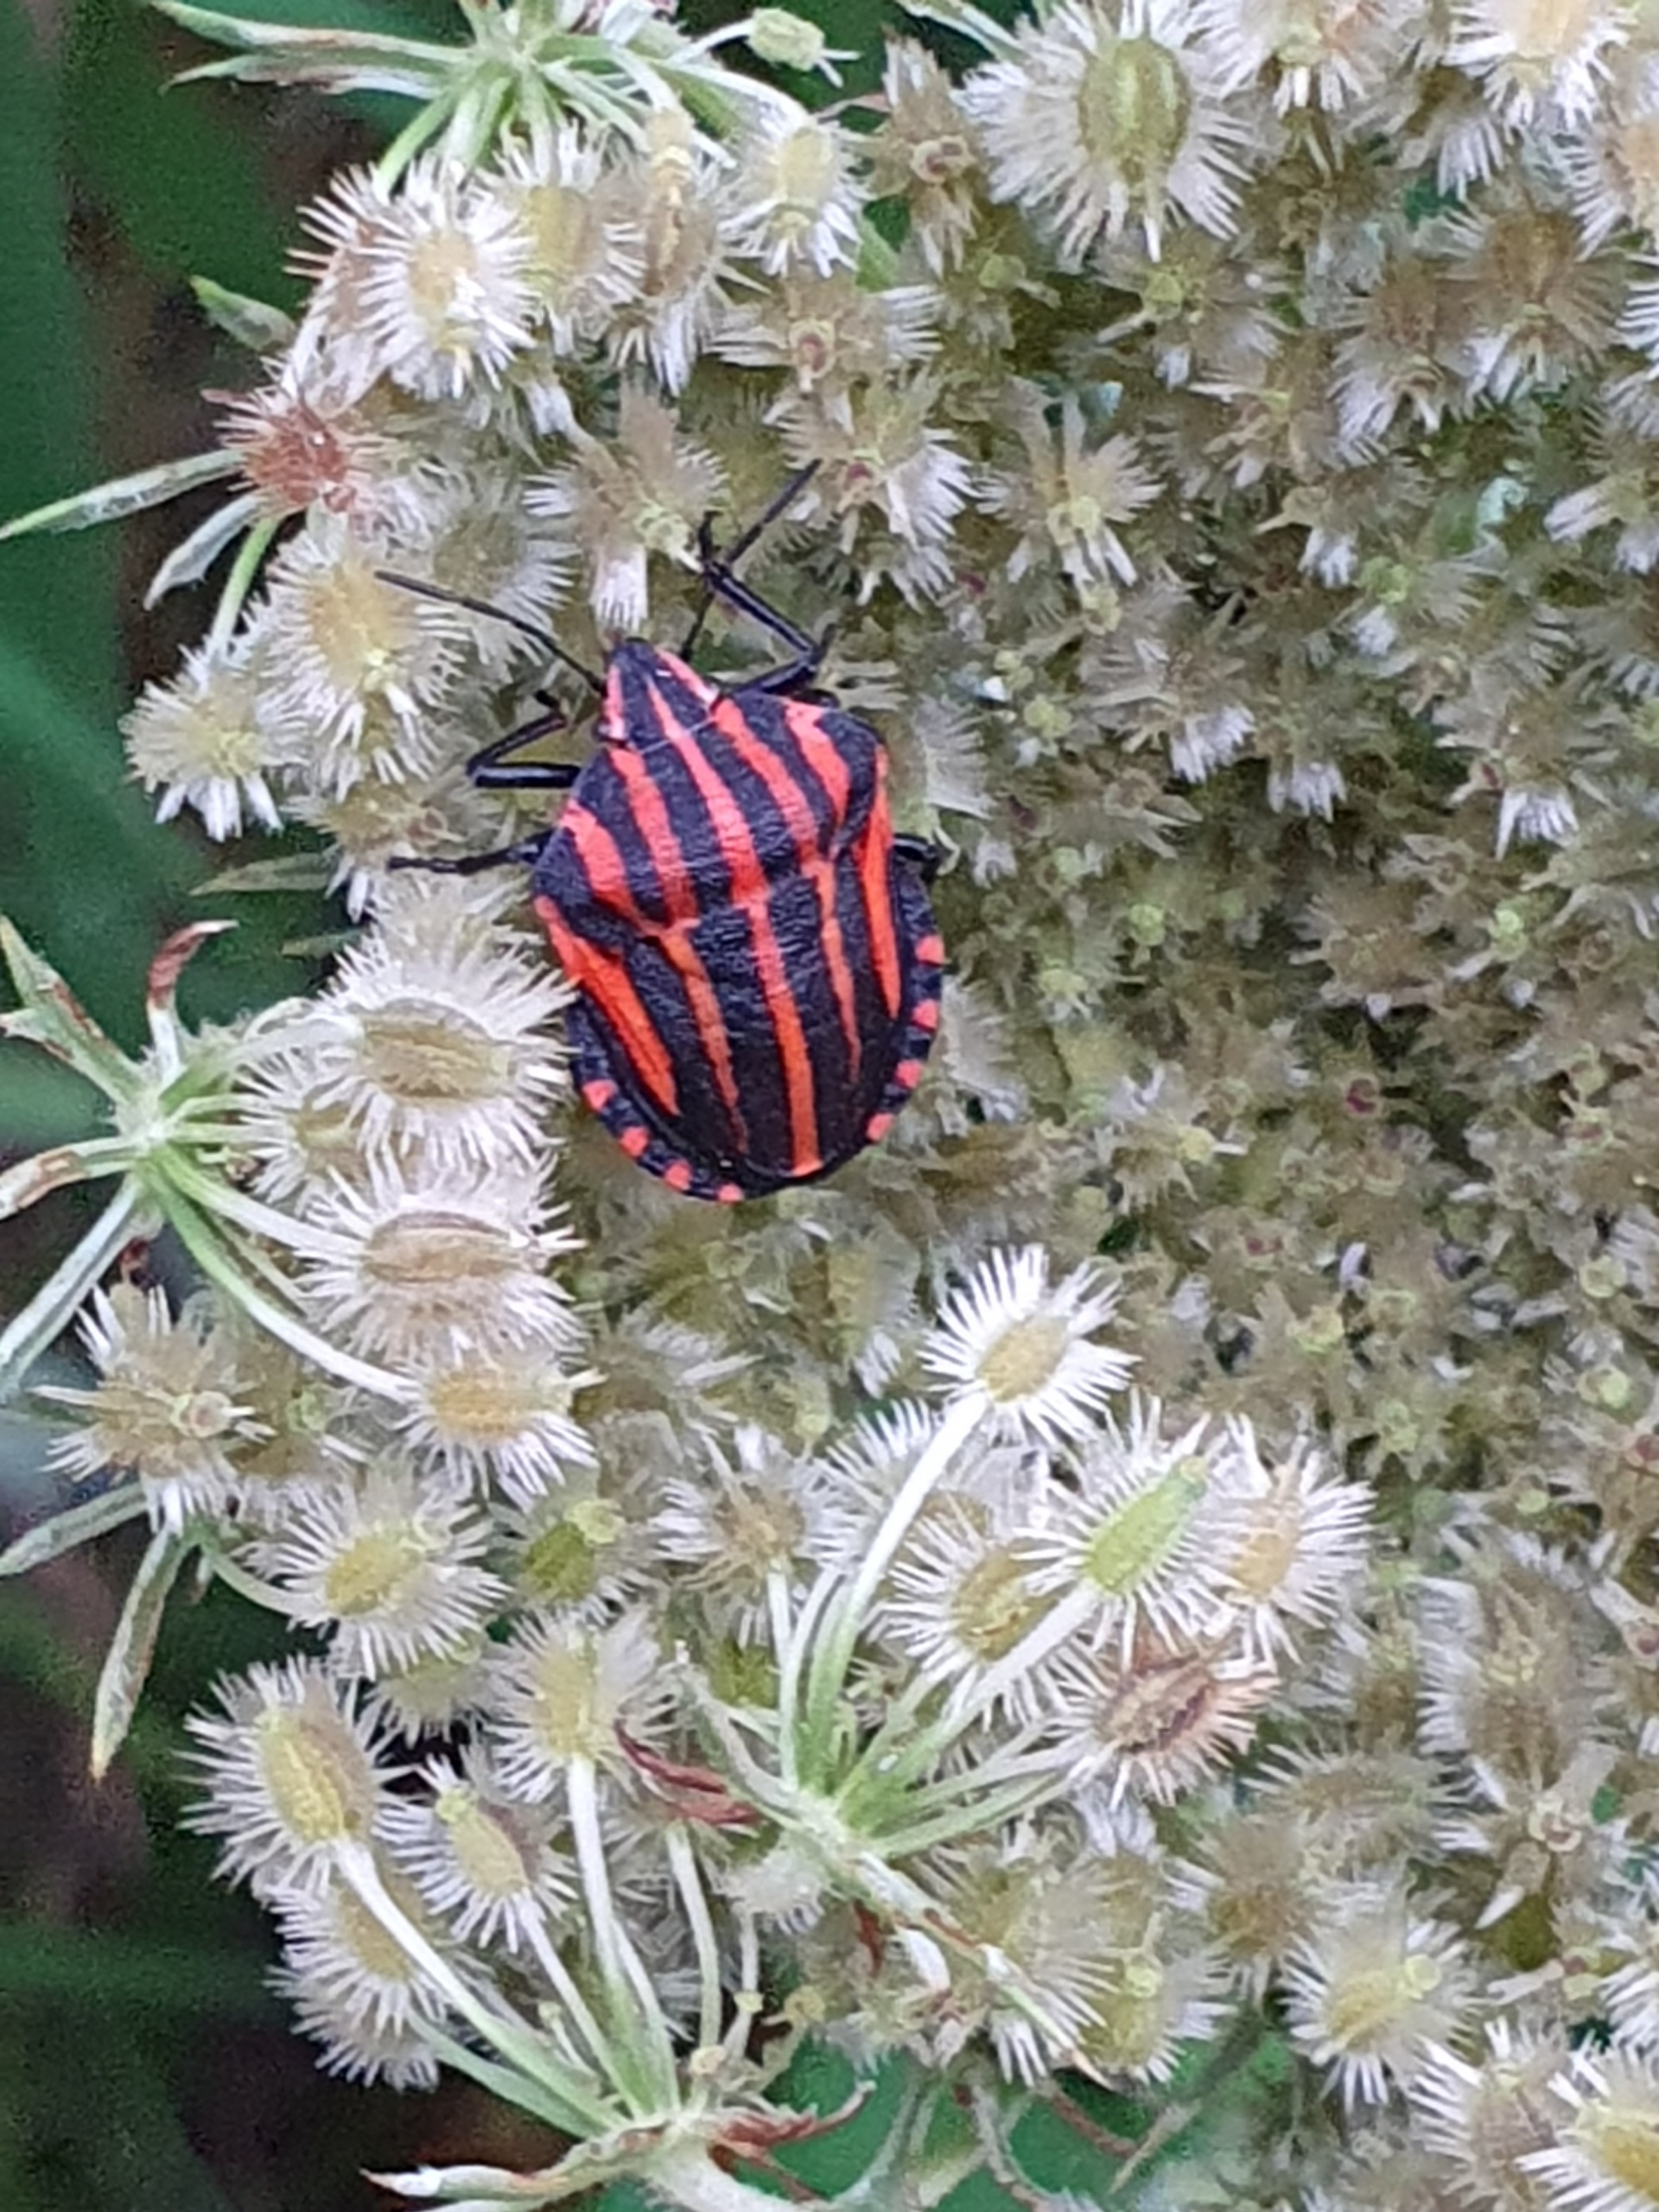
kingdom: Animalia
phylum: Arthropoda
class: Insecta
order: Hemiptera
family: Pentatomidae
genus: Graphosoma
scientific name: Graphosoma italicum
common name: Stribetæge
